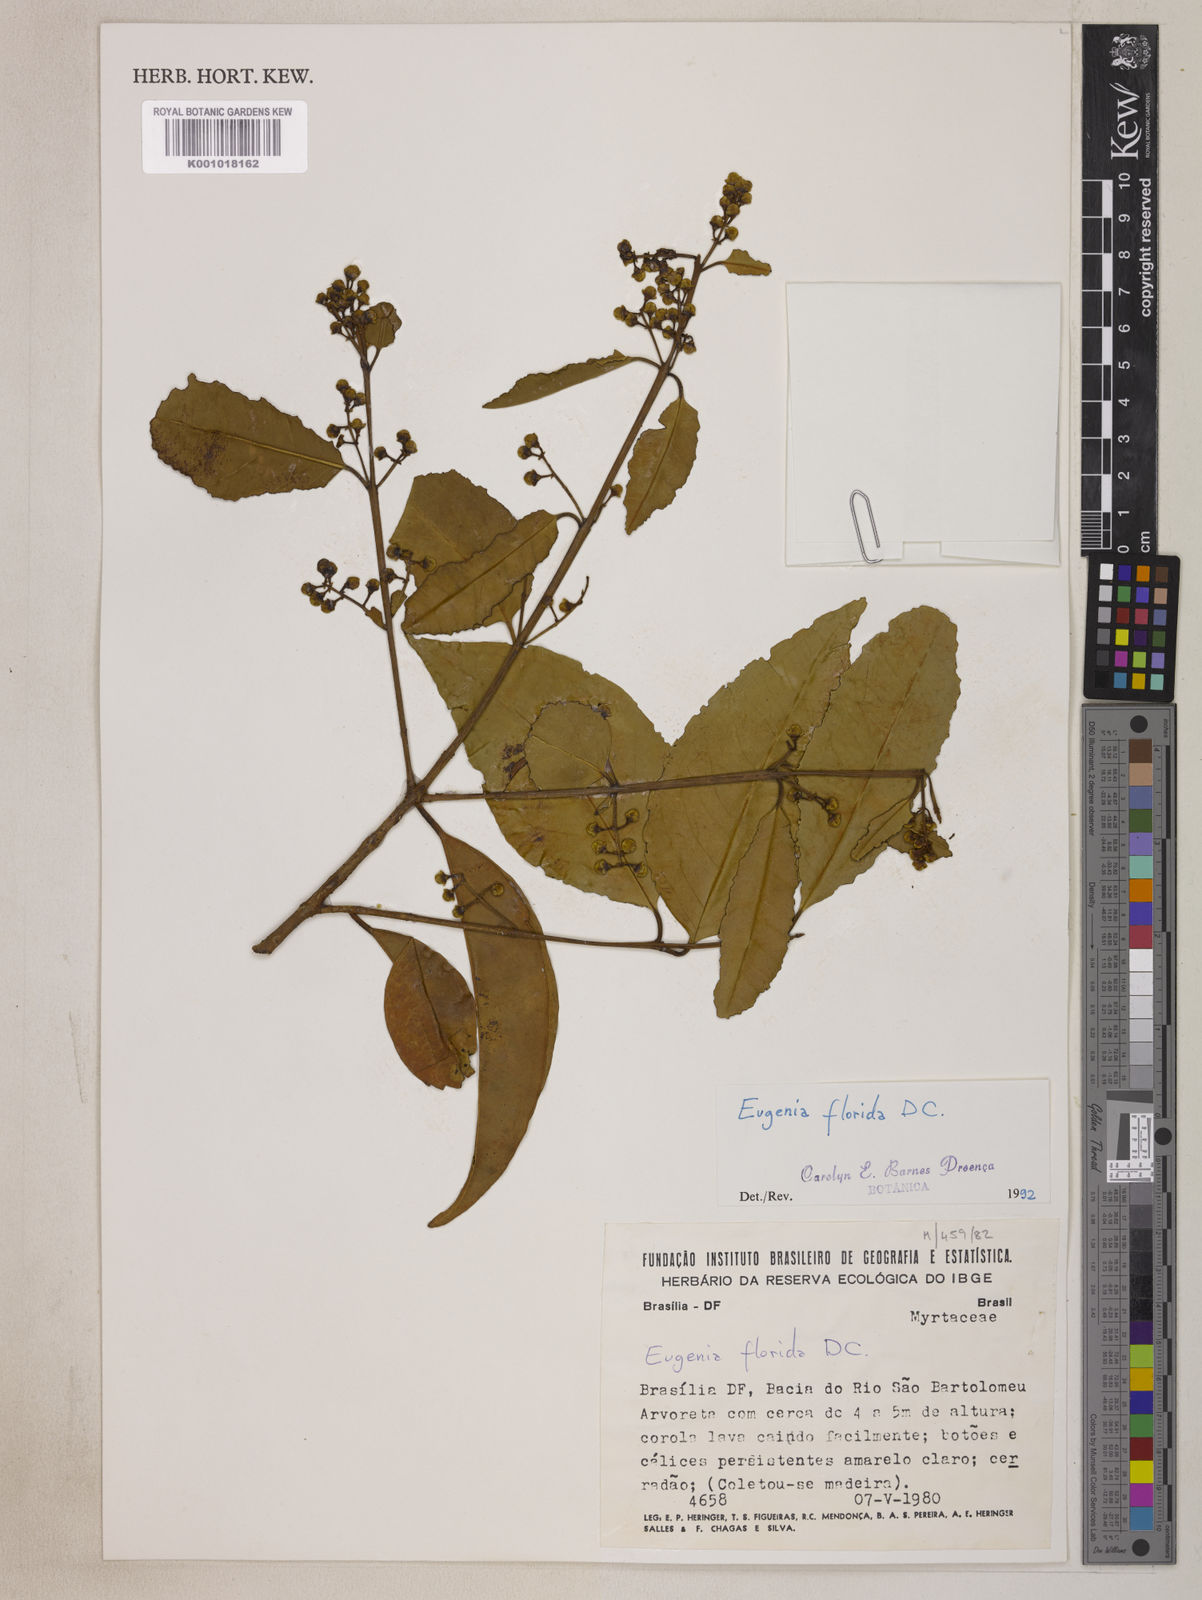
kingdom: Plantae
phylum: Tracheophyta
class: Magnoliopsida
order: Myrtales
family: Myrtaceae
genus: Eugenia
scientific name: Eugenia florida
